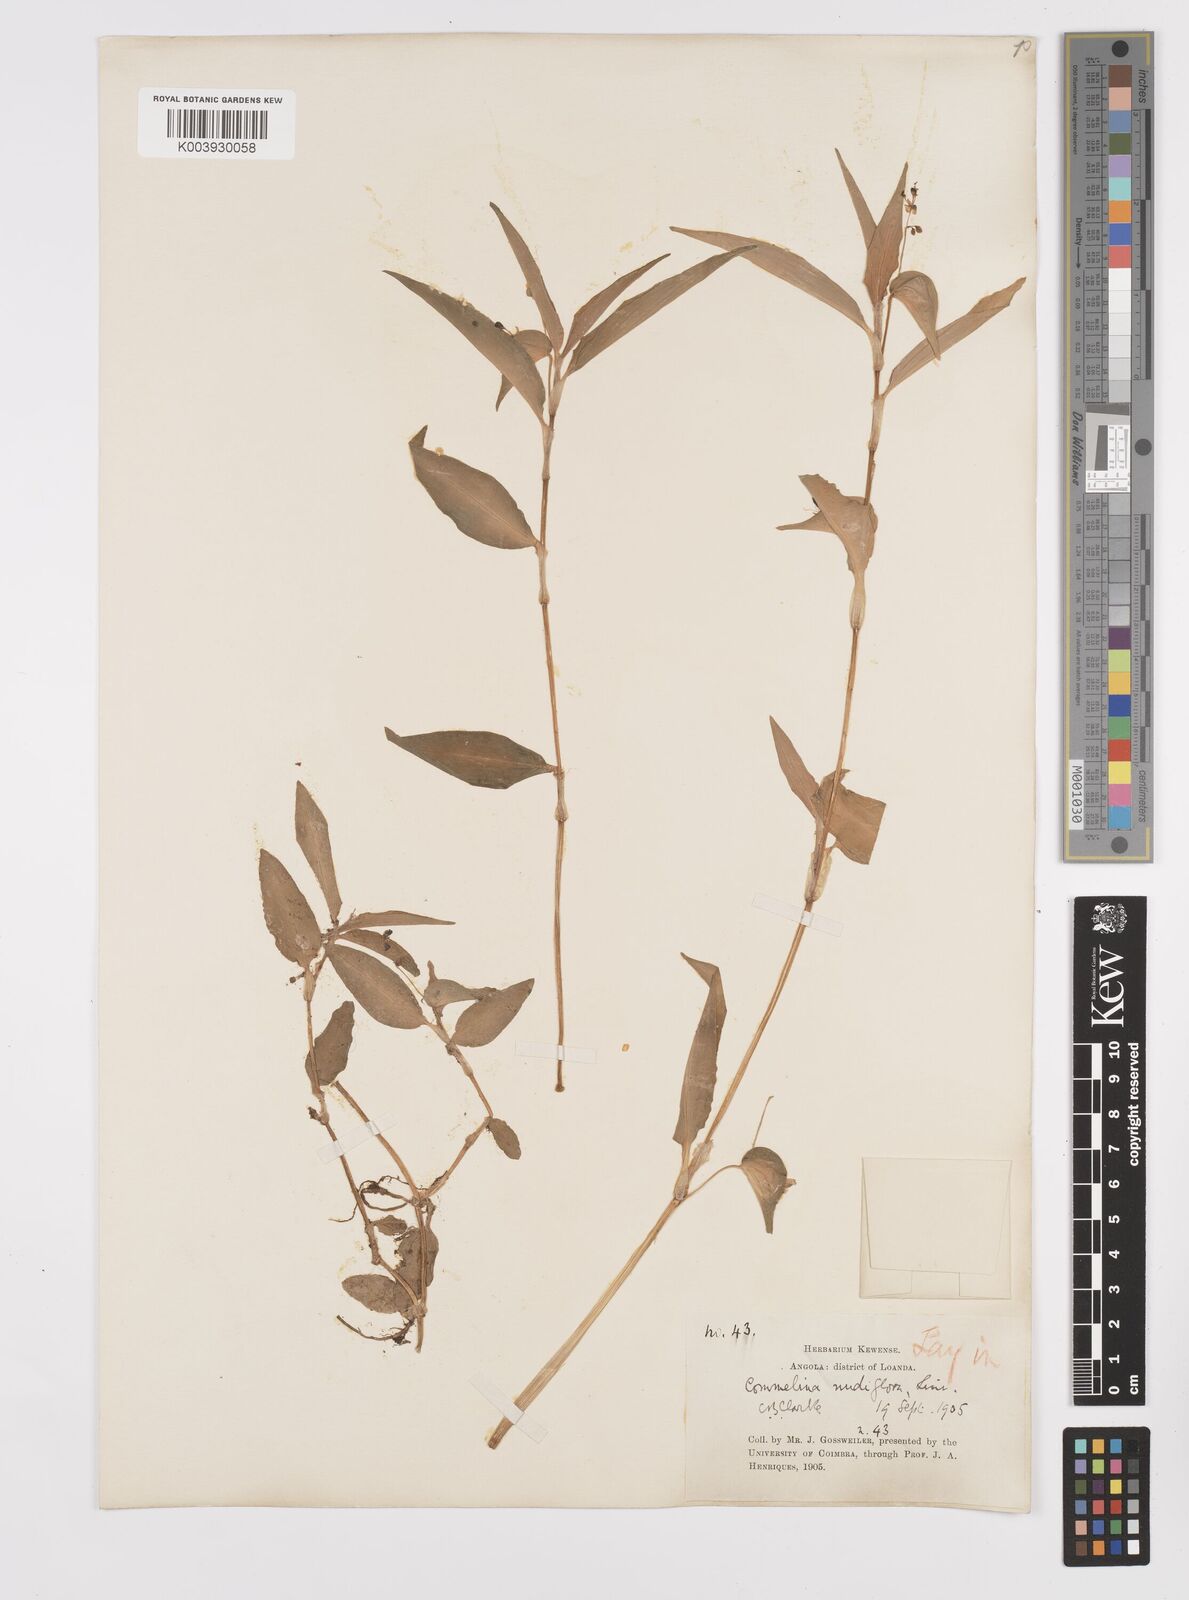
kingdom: Plantae
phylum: Tracheophyta
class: Liliopsida
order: Commelinales
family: Commelinaceae
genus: Commelina
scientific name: Commelina diffusa
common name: Climbing dayflower
